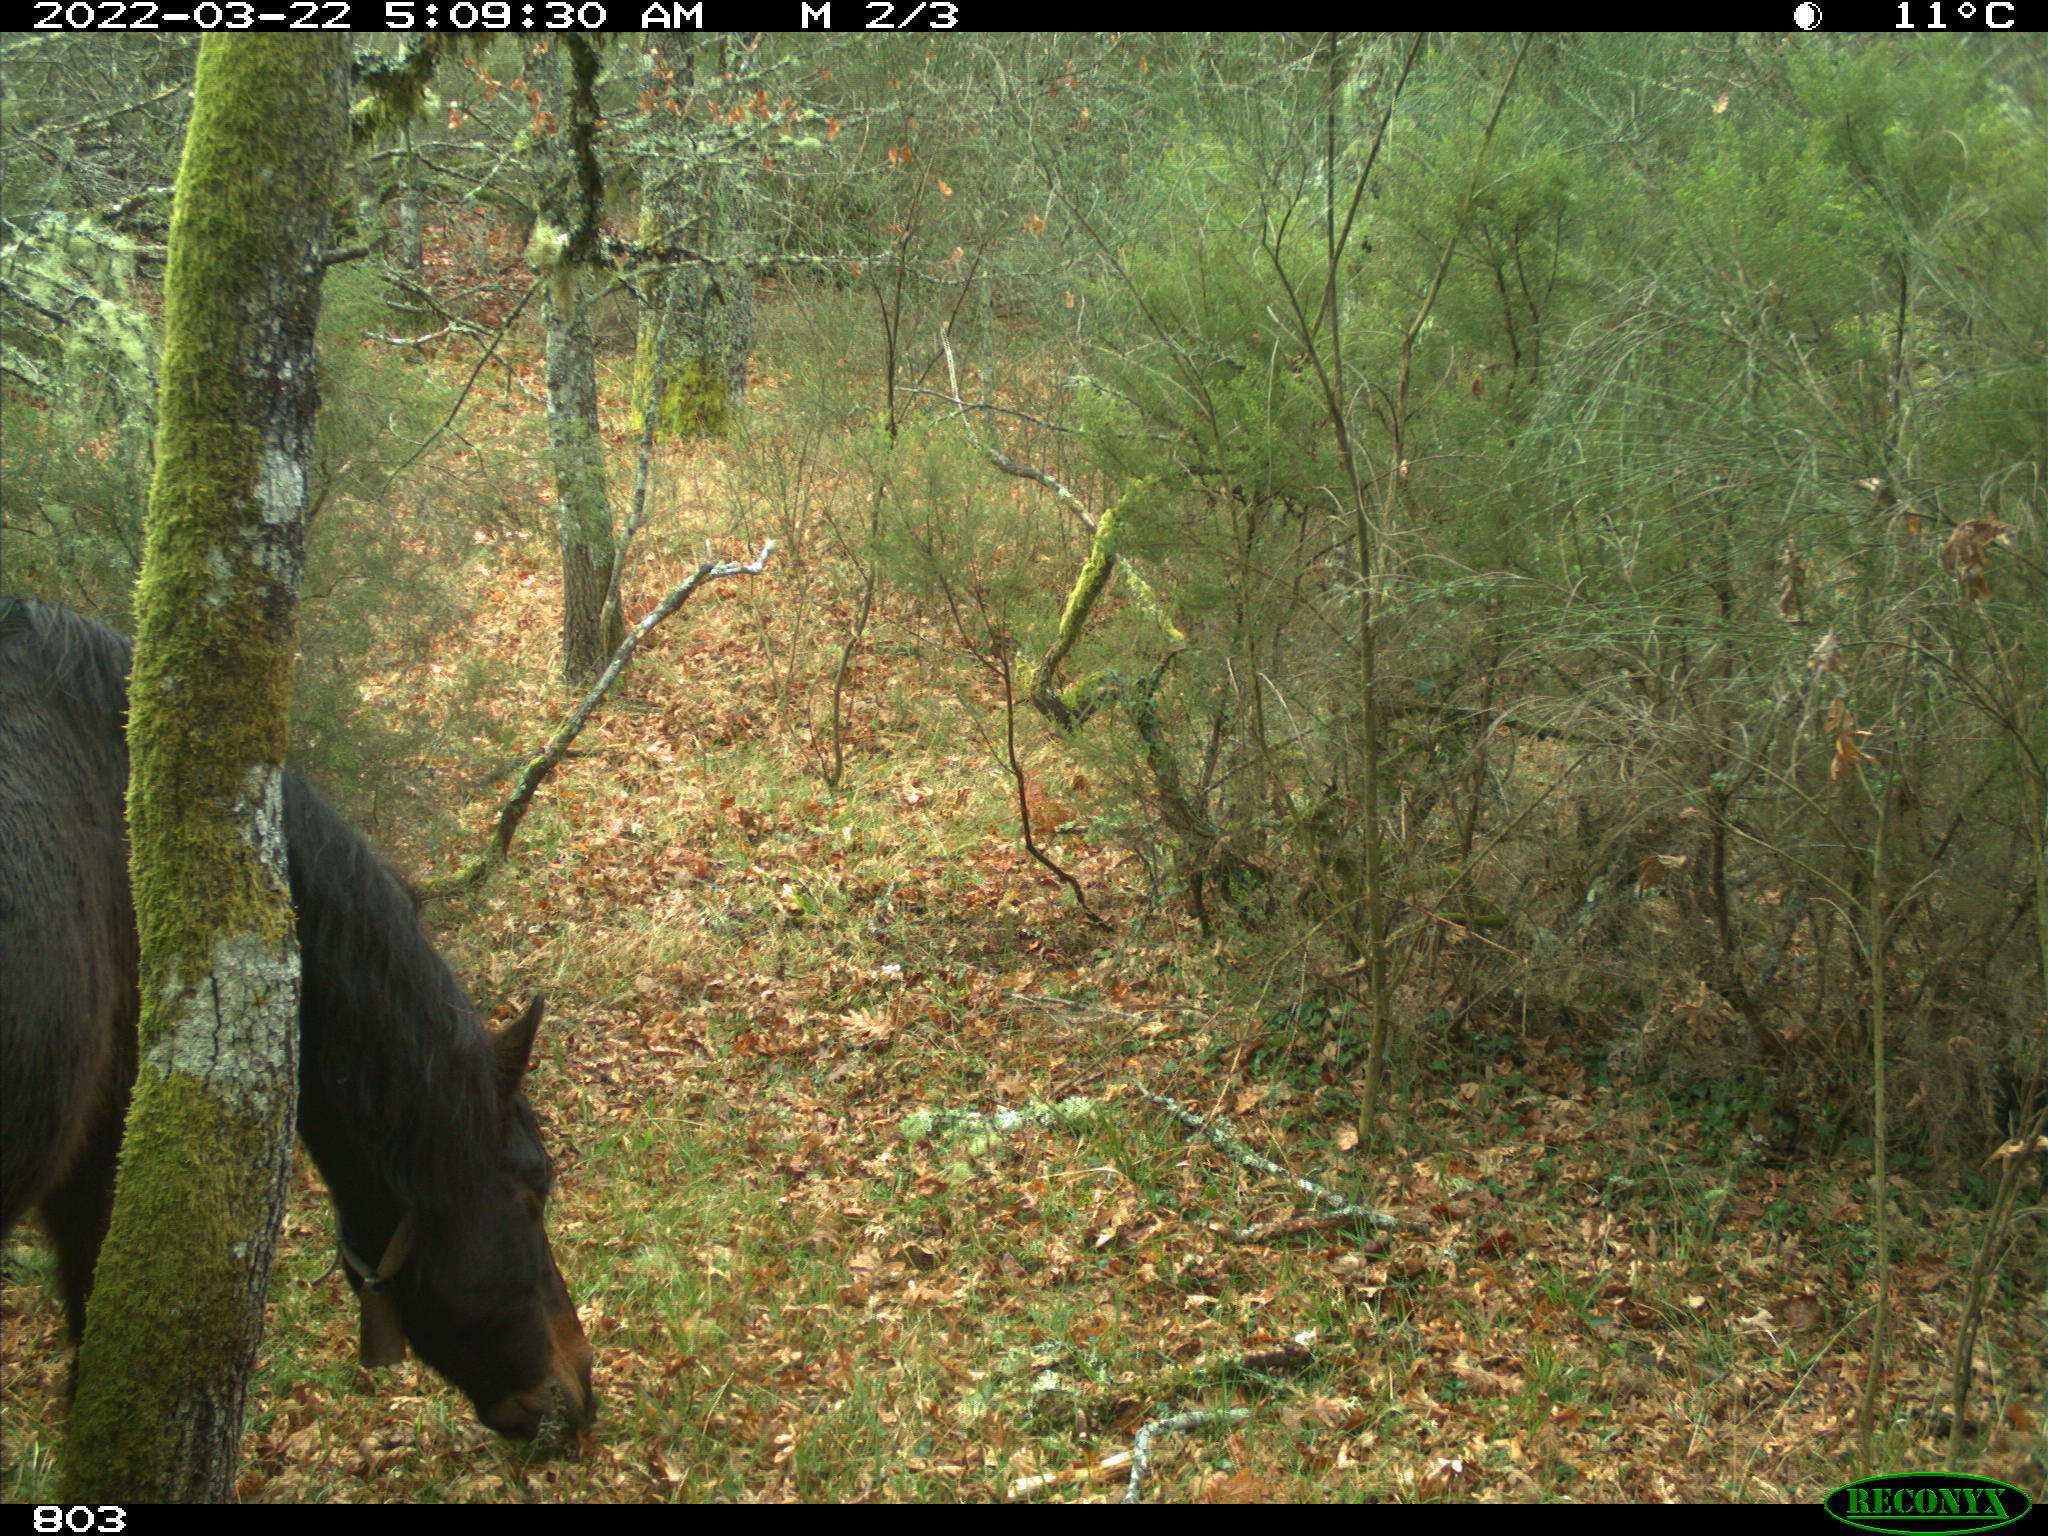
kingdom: Animalia
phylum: Chordata
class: Mammalia
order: Perissodactyla
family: Equidae
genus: Equus
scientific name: Equus caballus
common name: Horse
